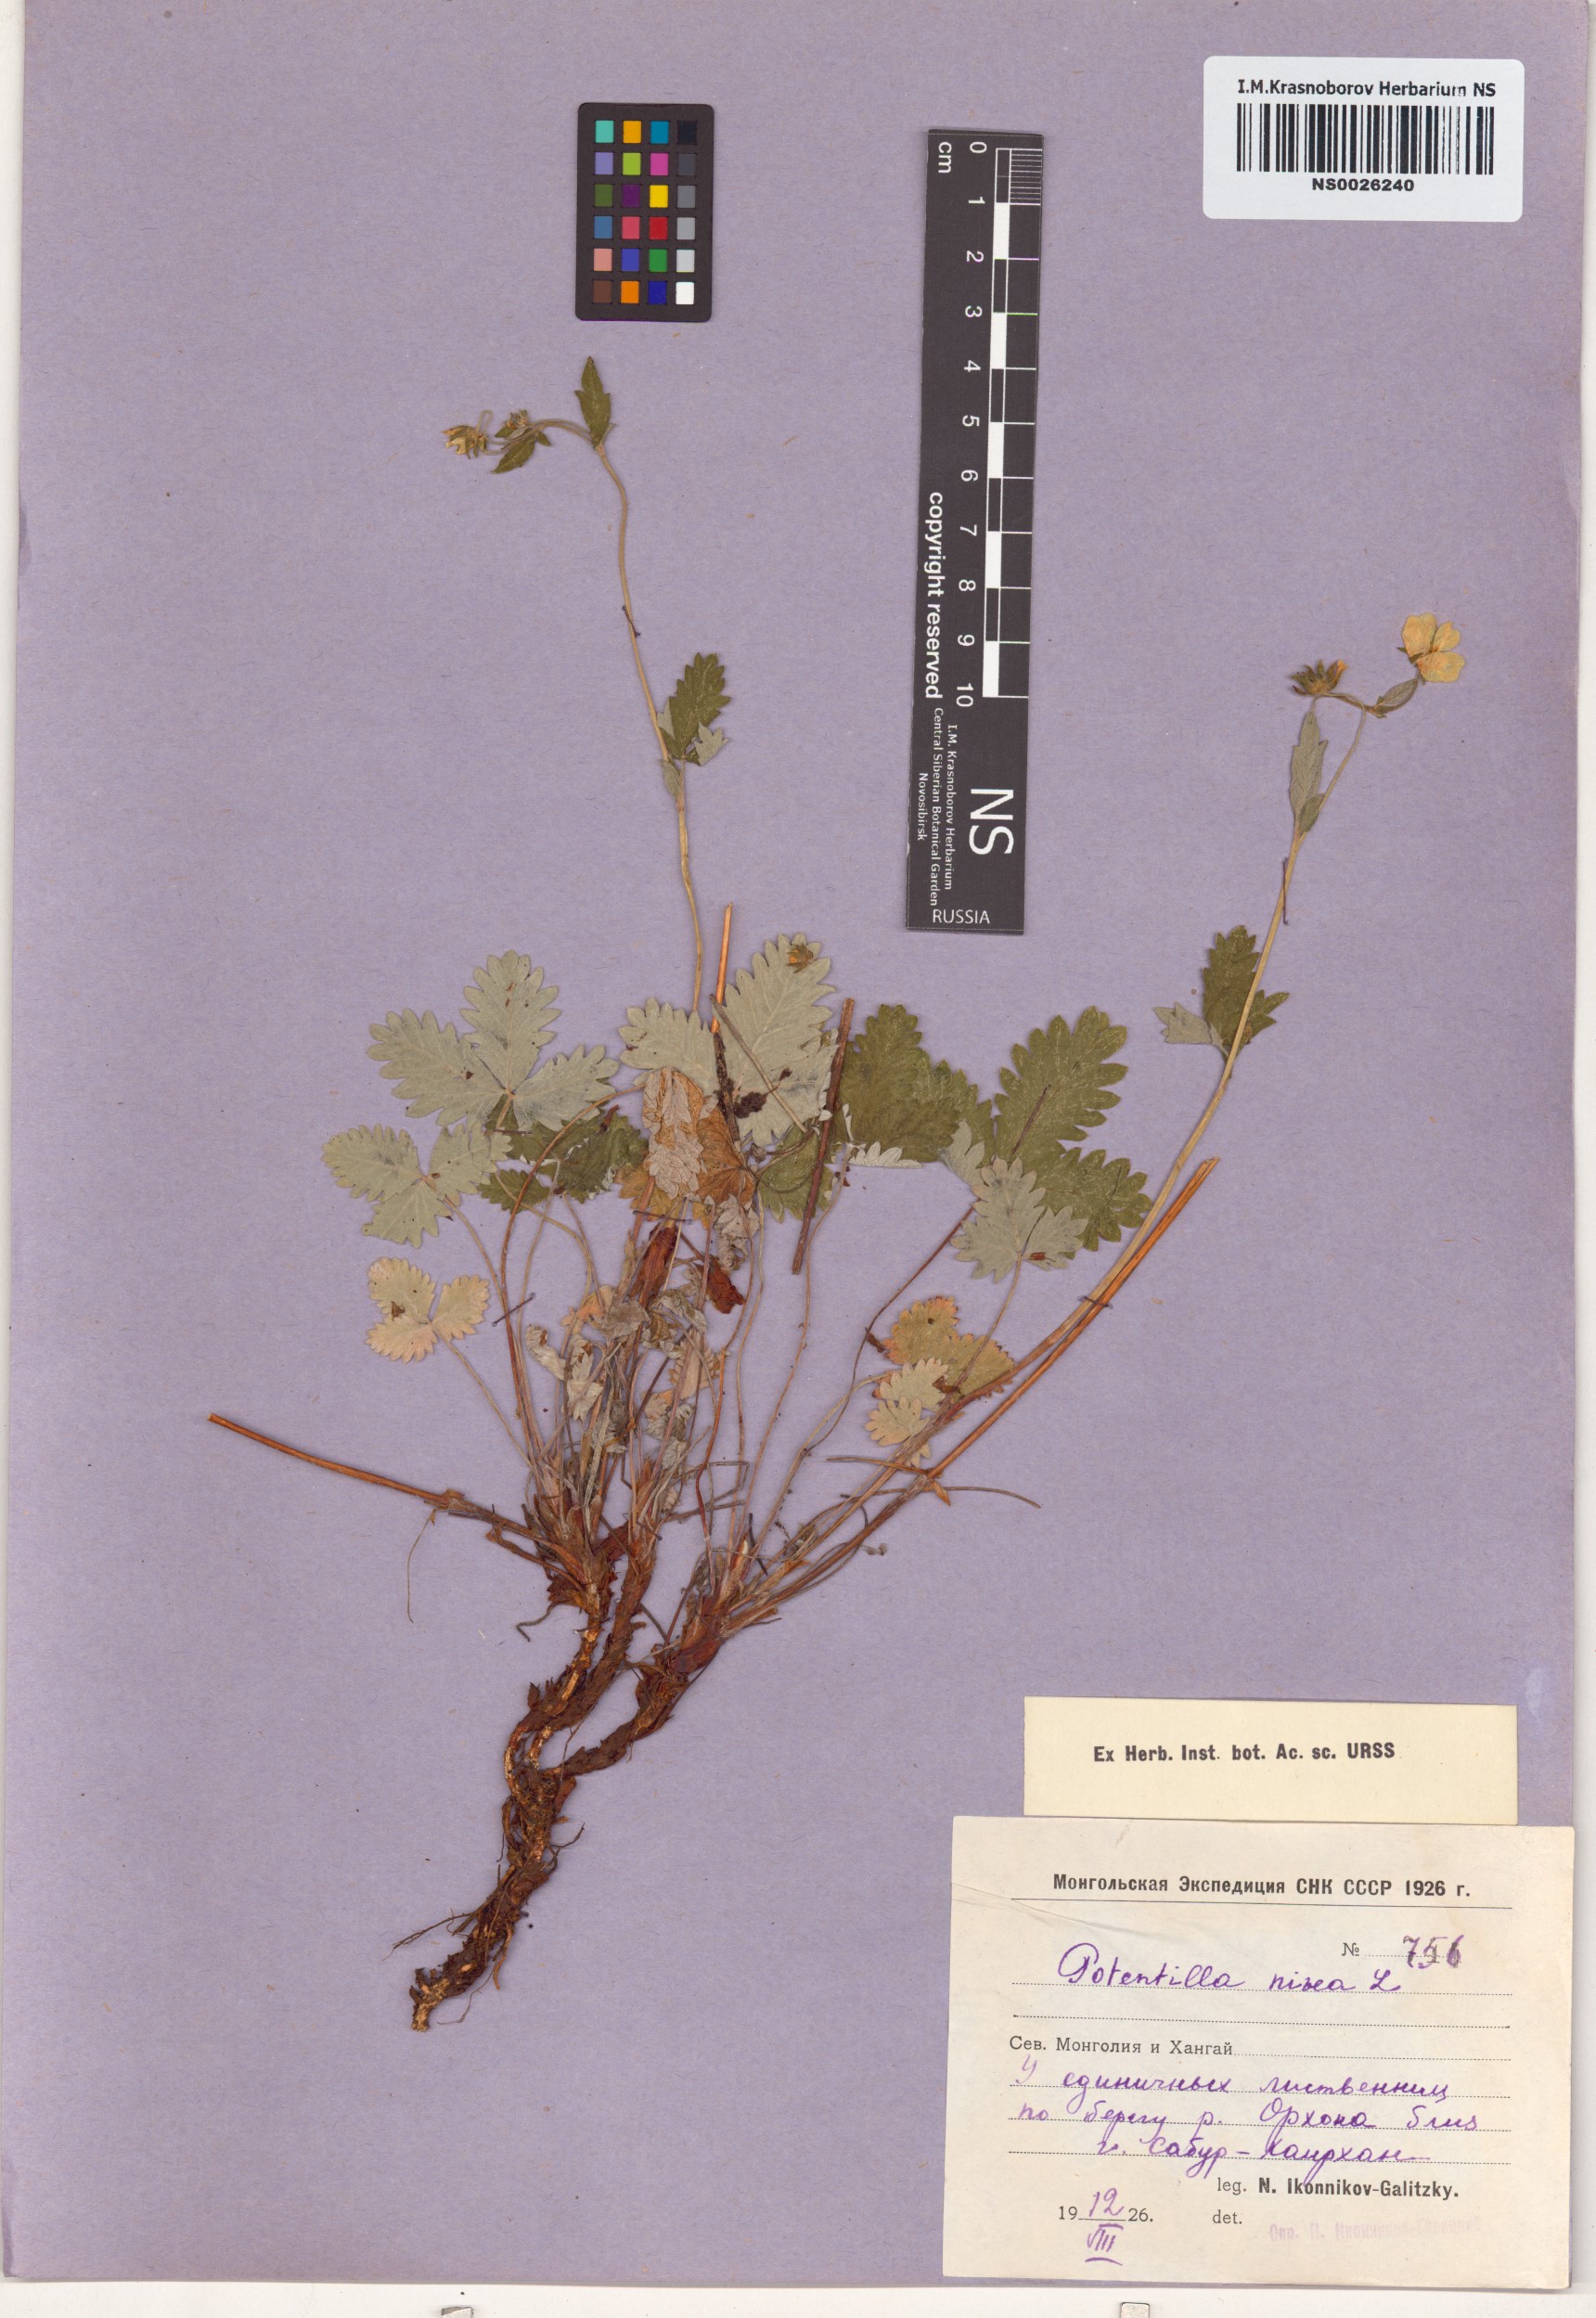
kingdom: Plantae
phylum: Tracheophyta
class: Magnoliopsida
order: Rosales
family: Rosaceae
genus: Potentilla
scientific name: Potentilla nivea
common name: Snow cinquefoil
